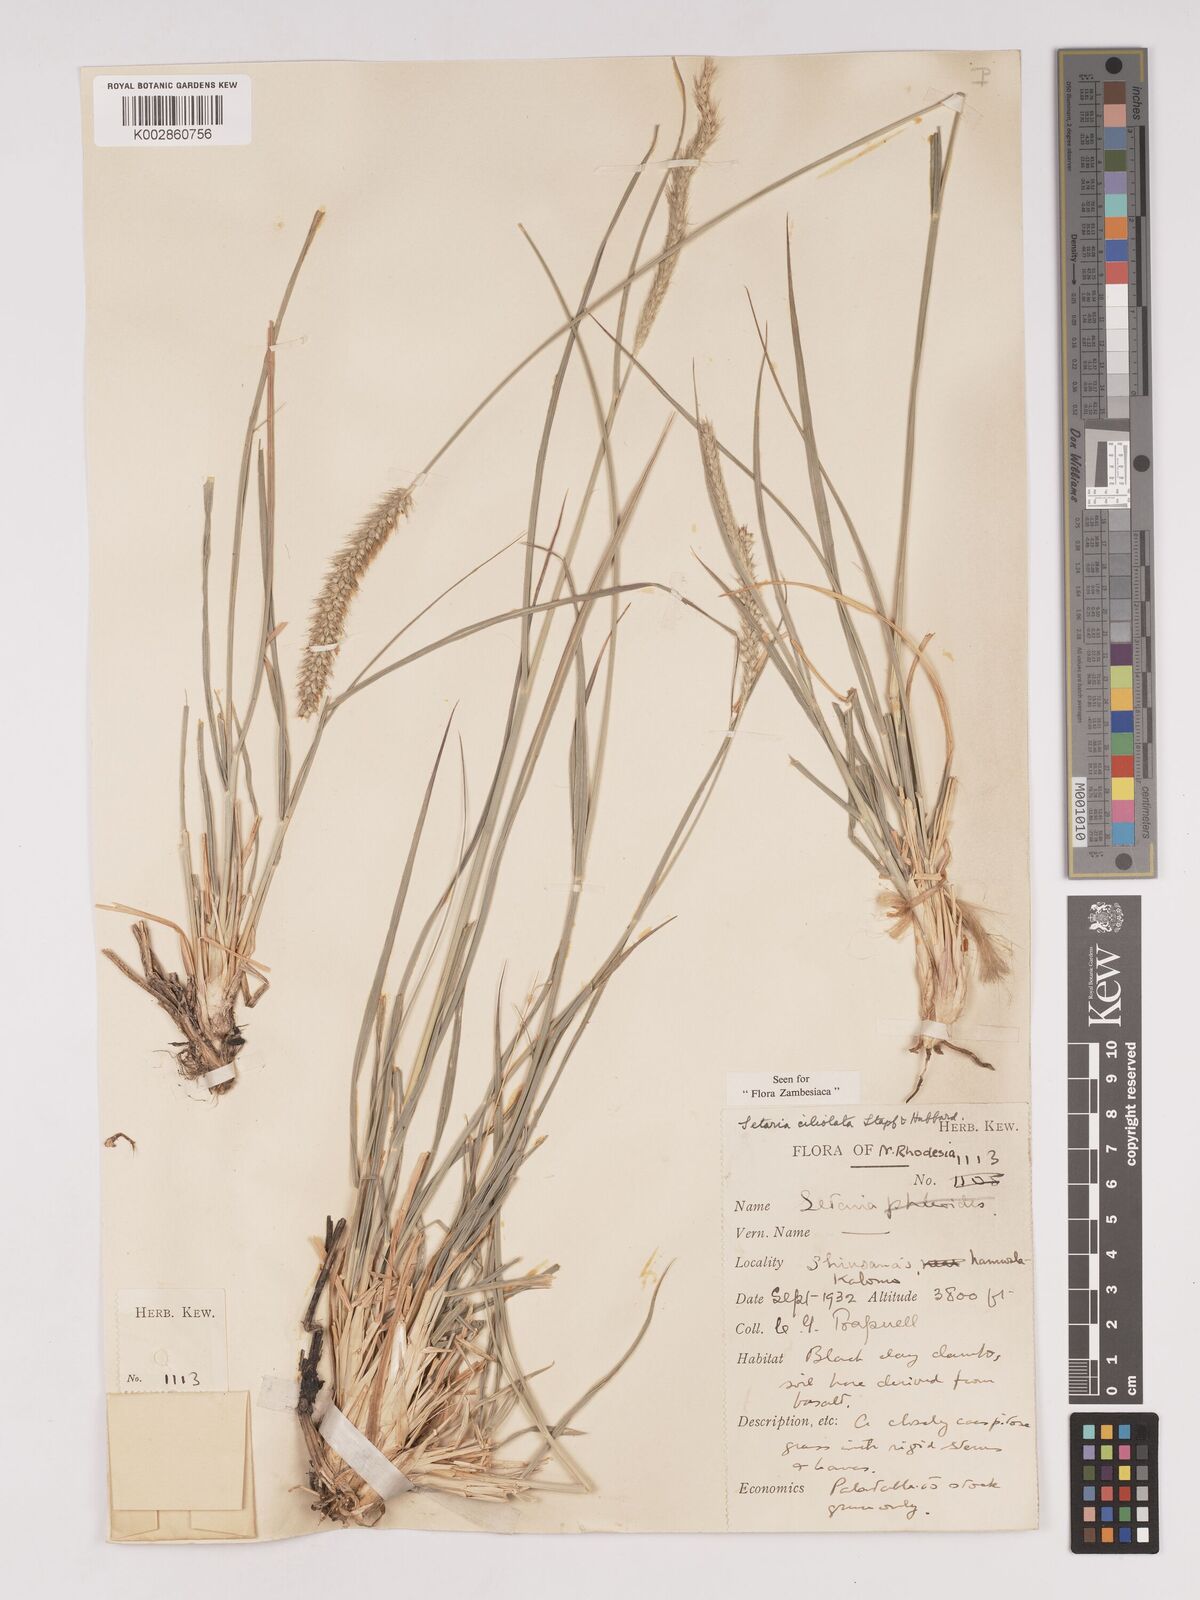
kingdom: Plantae
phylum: Tracheophyta
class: Liliopsida
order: Poales
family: Poaceae
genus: Setaria
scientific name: Setaria incrassata
